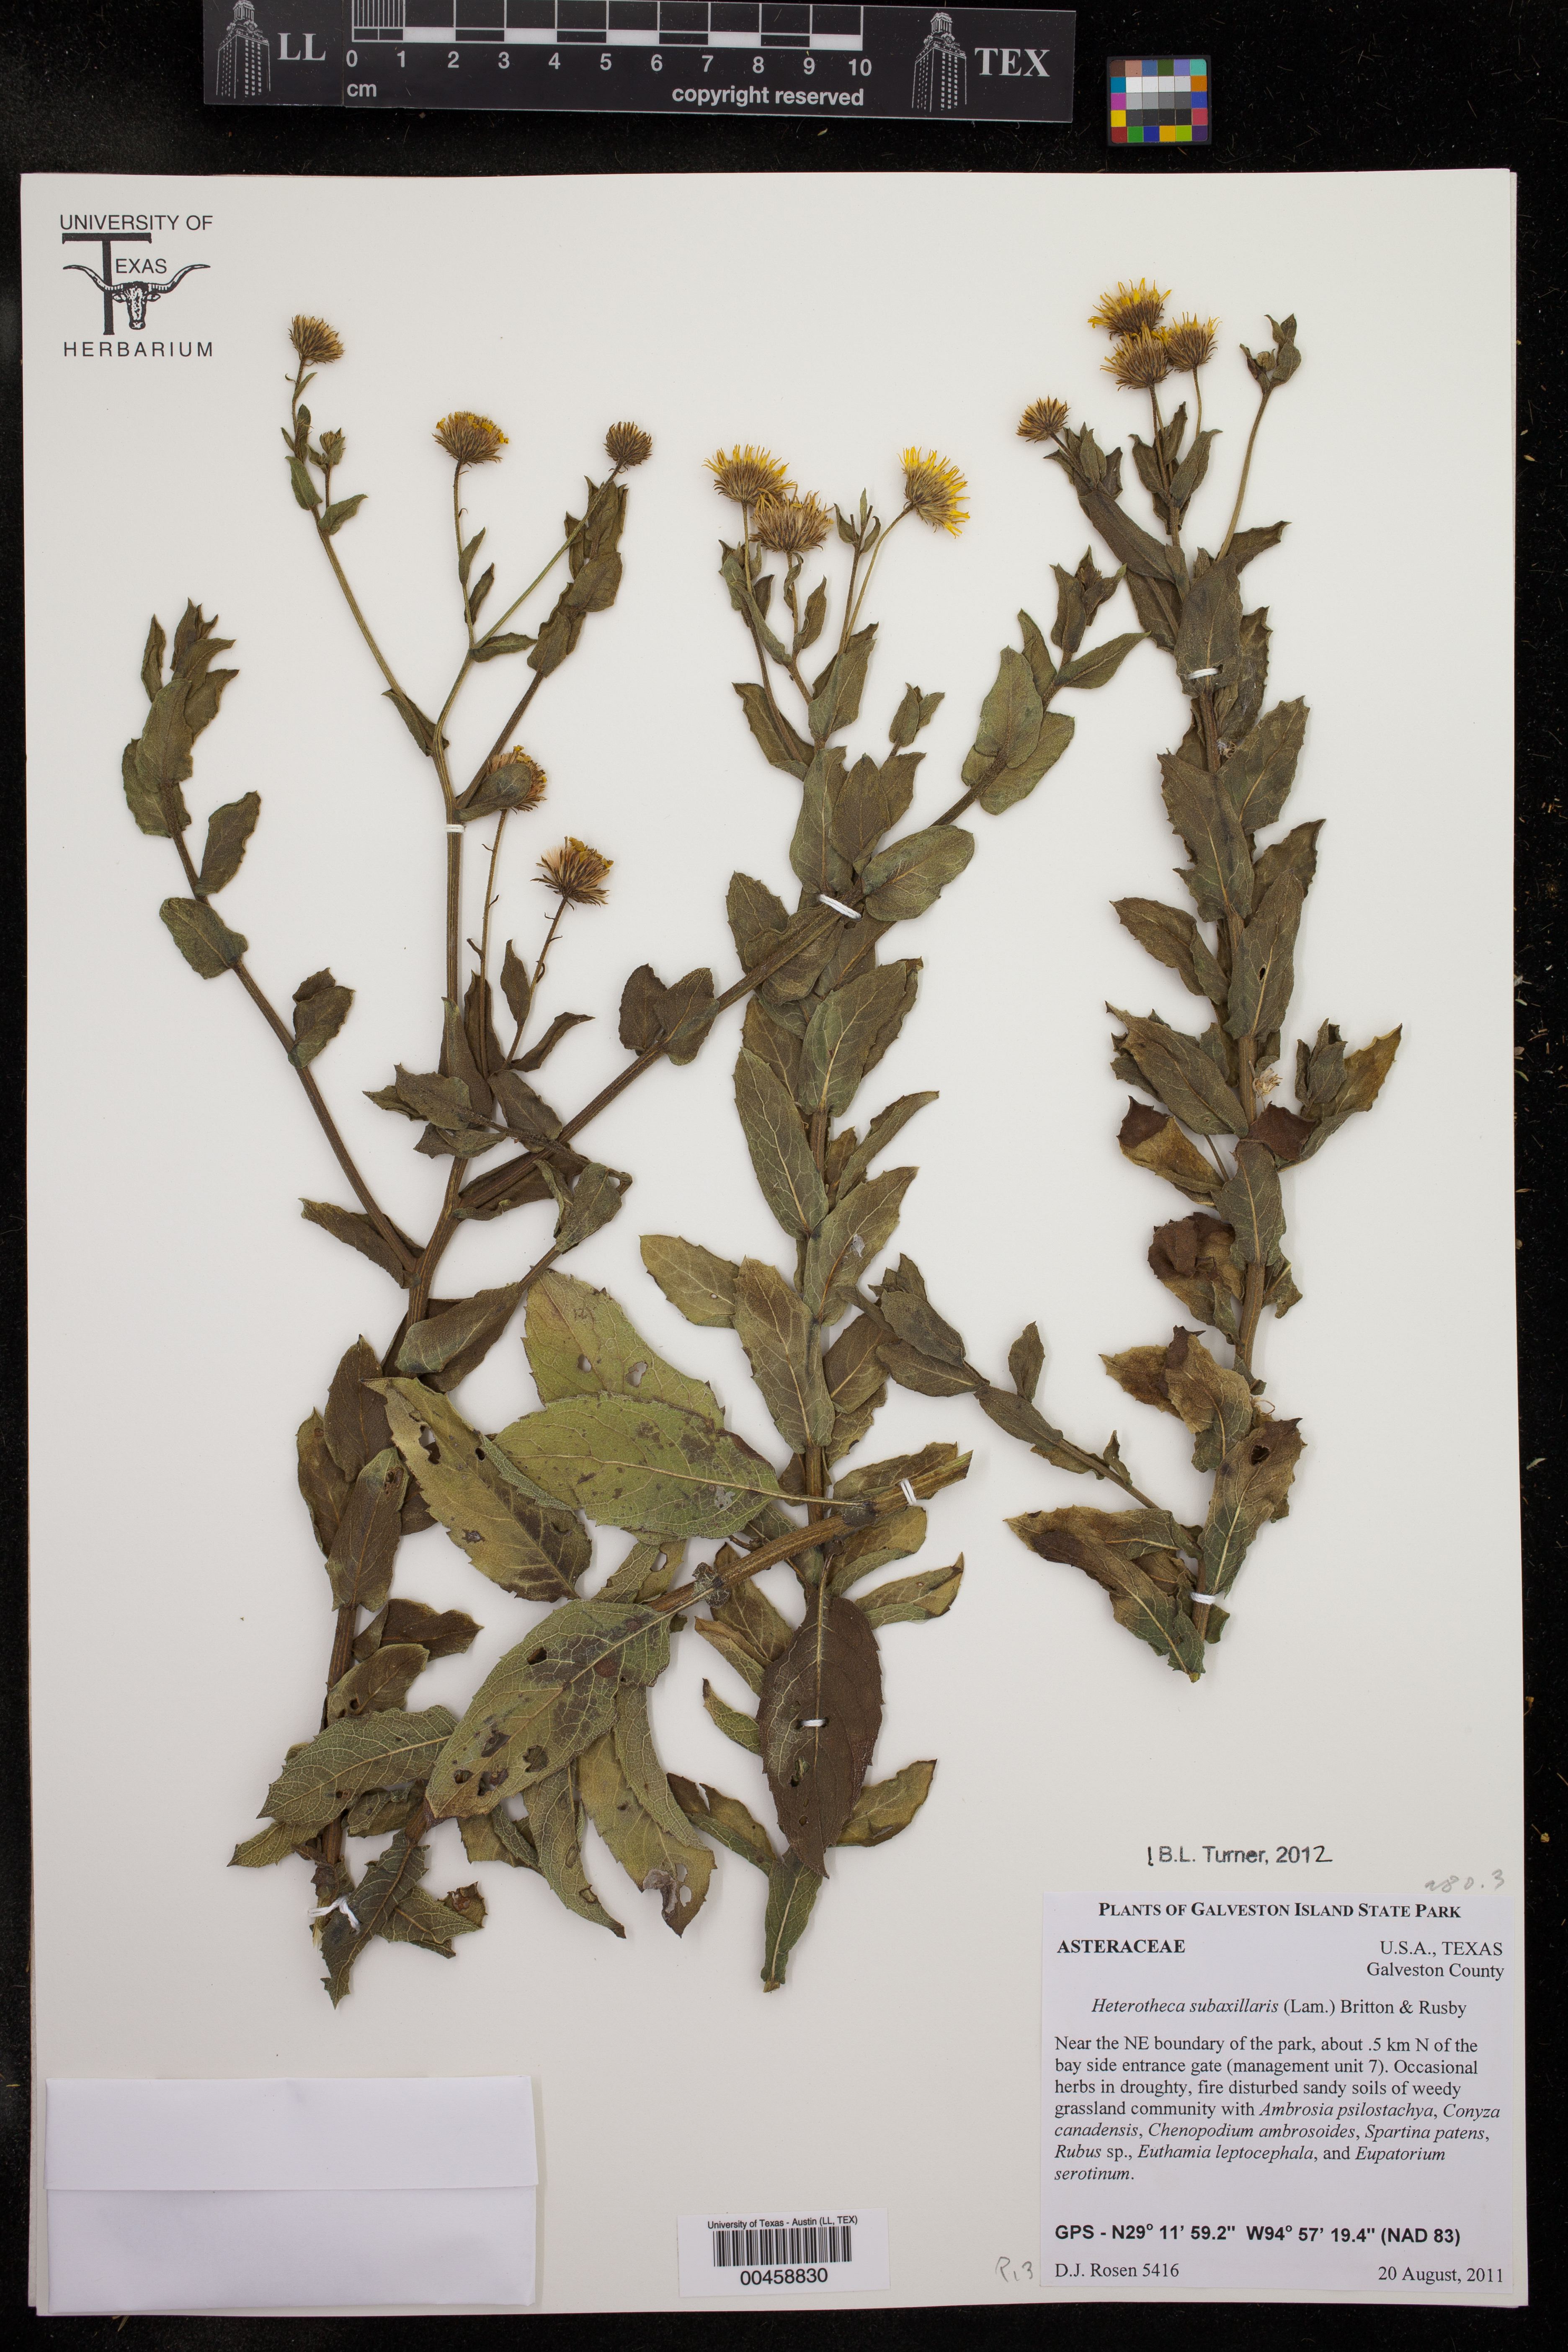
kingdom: Plantae
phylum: Tracheophyta
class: Magnoliopsida
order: Asterales
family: Asteraceae
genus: Heterotheca
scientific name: Heterotheca subaxillaris
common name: Camphorweed
